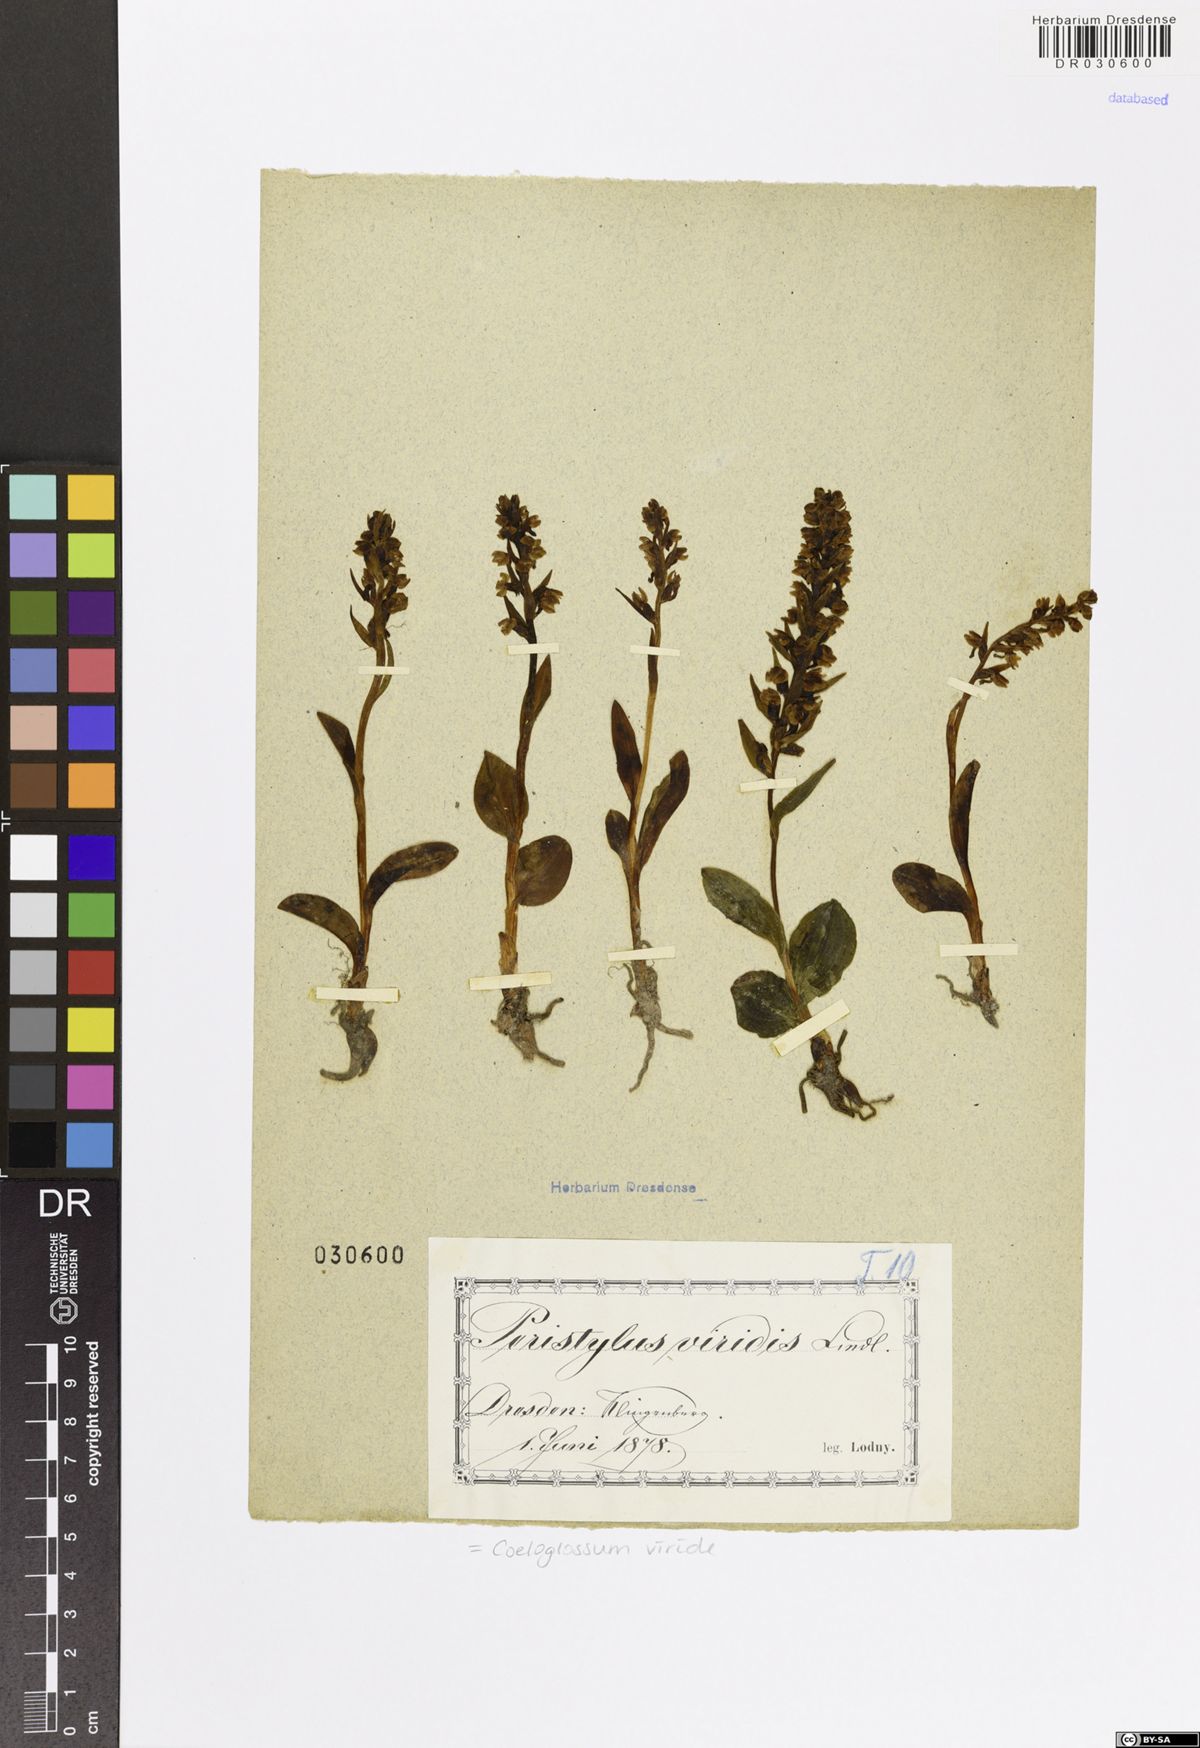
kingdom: Plantae
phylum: Tracheophyta
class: Liliopsida
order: Asparagales
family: Orchidaceae
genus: Dactylorhiza
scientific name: Dactylorhiza viridis
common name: Longbract frog orchid
